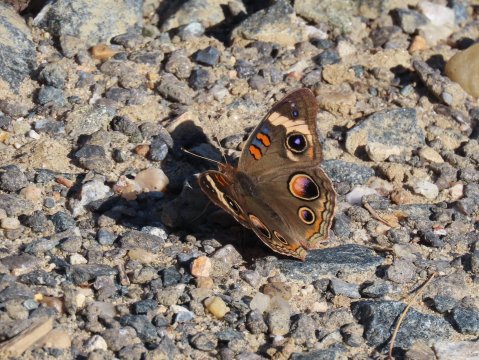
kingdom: Animalia
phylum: Arthropoda
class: Insecta
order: Lepidoptera
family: Nymphalidae
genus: Junonia
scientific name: Junonia coenia
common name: Common Buckeye
